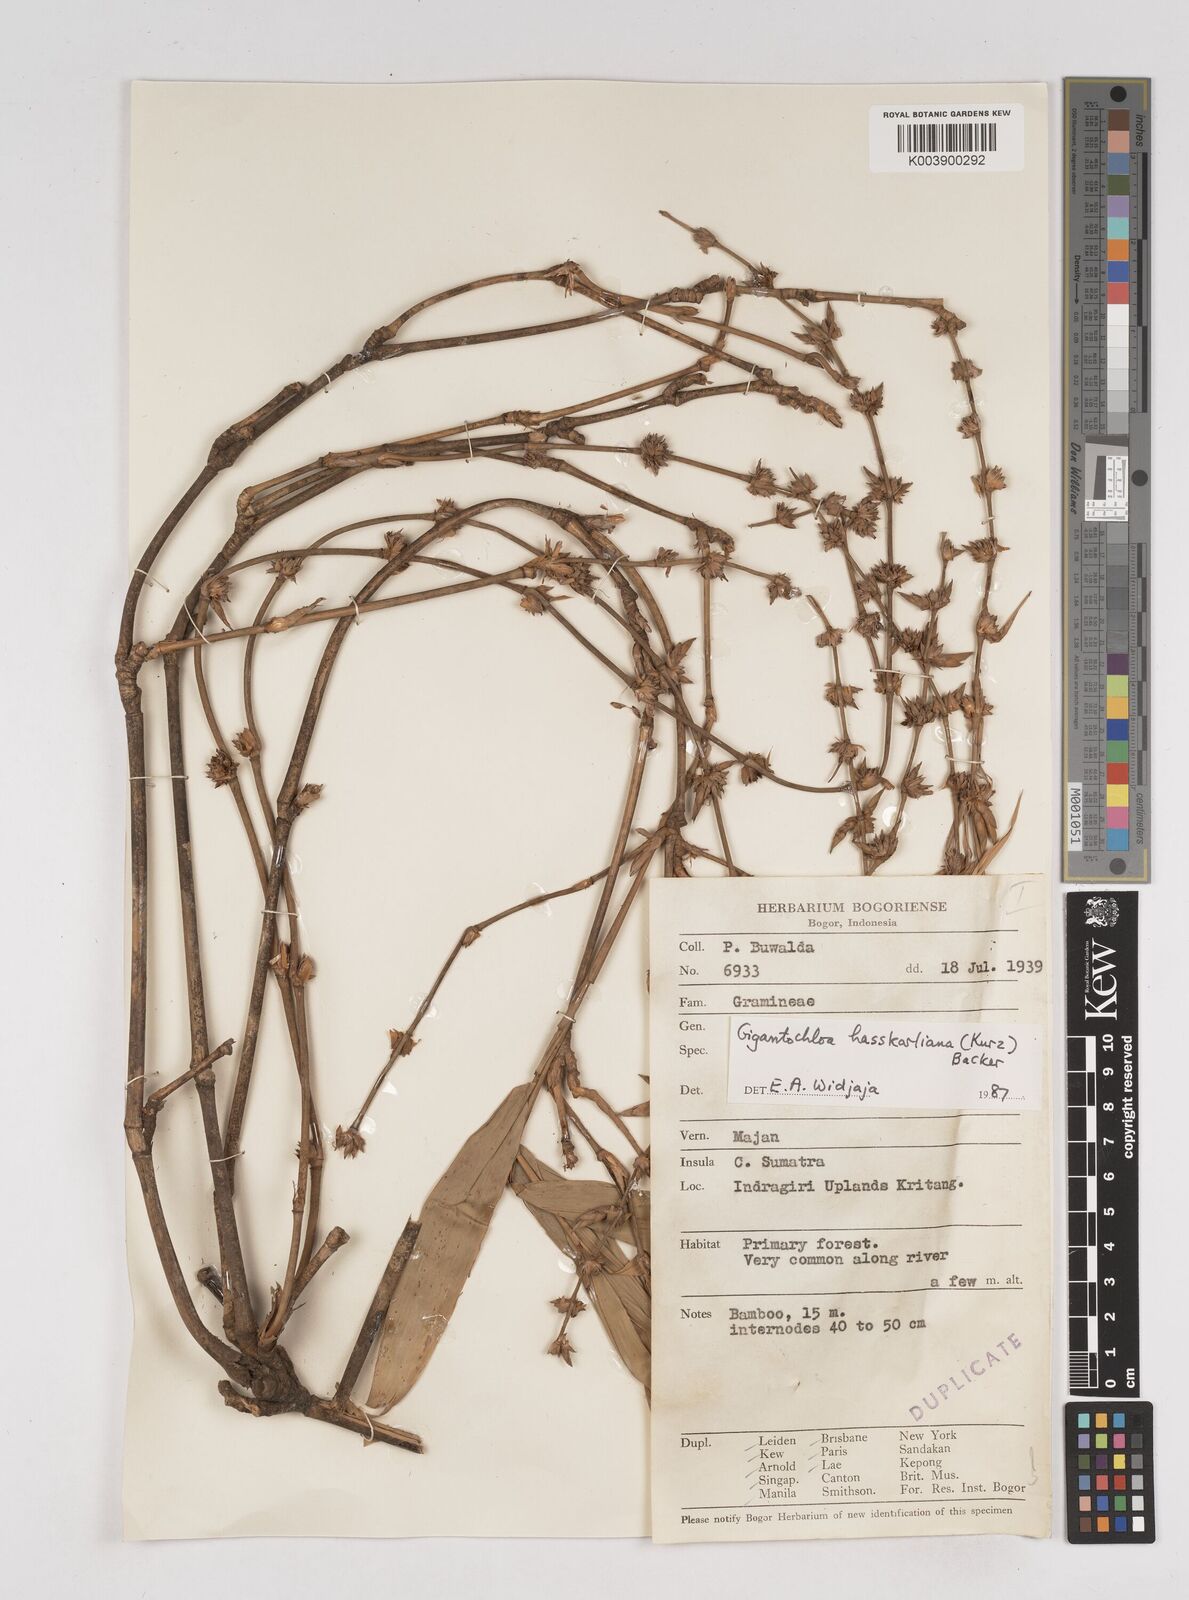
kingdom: Plantae
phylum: Tracheophyta
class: Liliopsida
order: Poales
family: Poaceae
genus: Gigantochloa
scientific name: Gigantochloa hasskarliana
